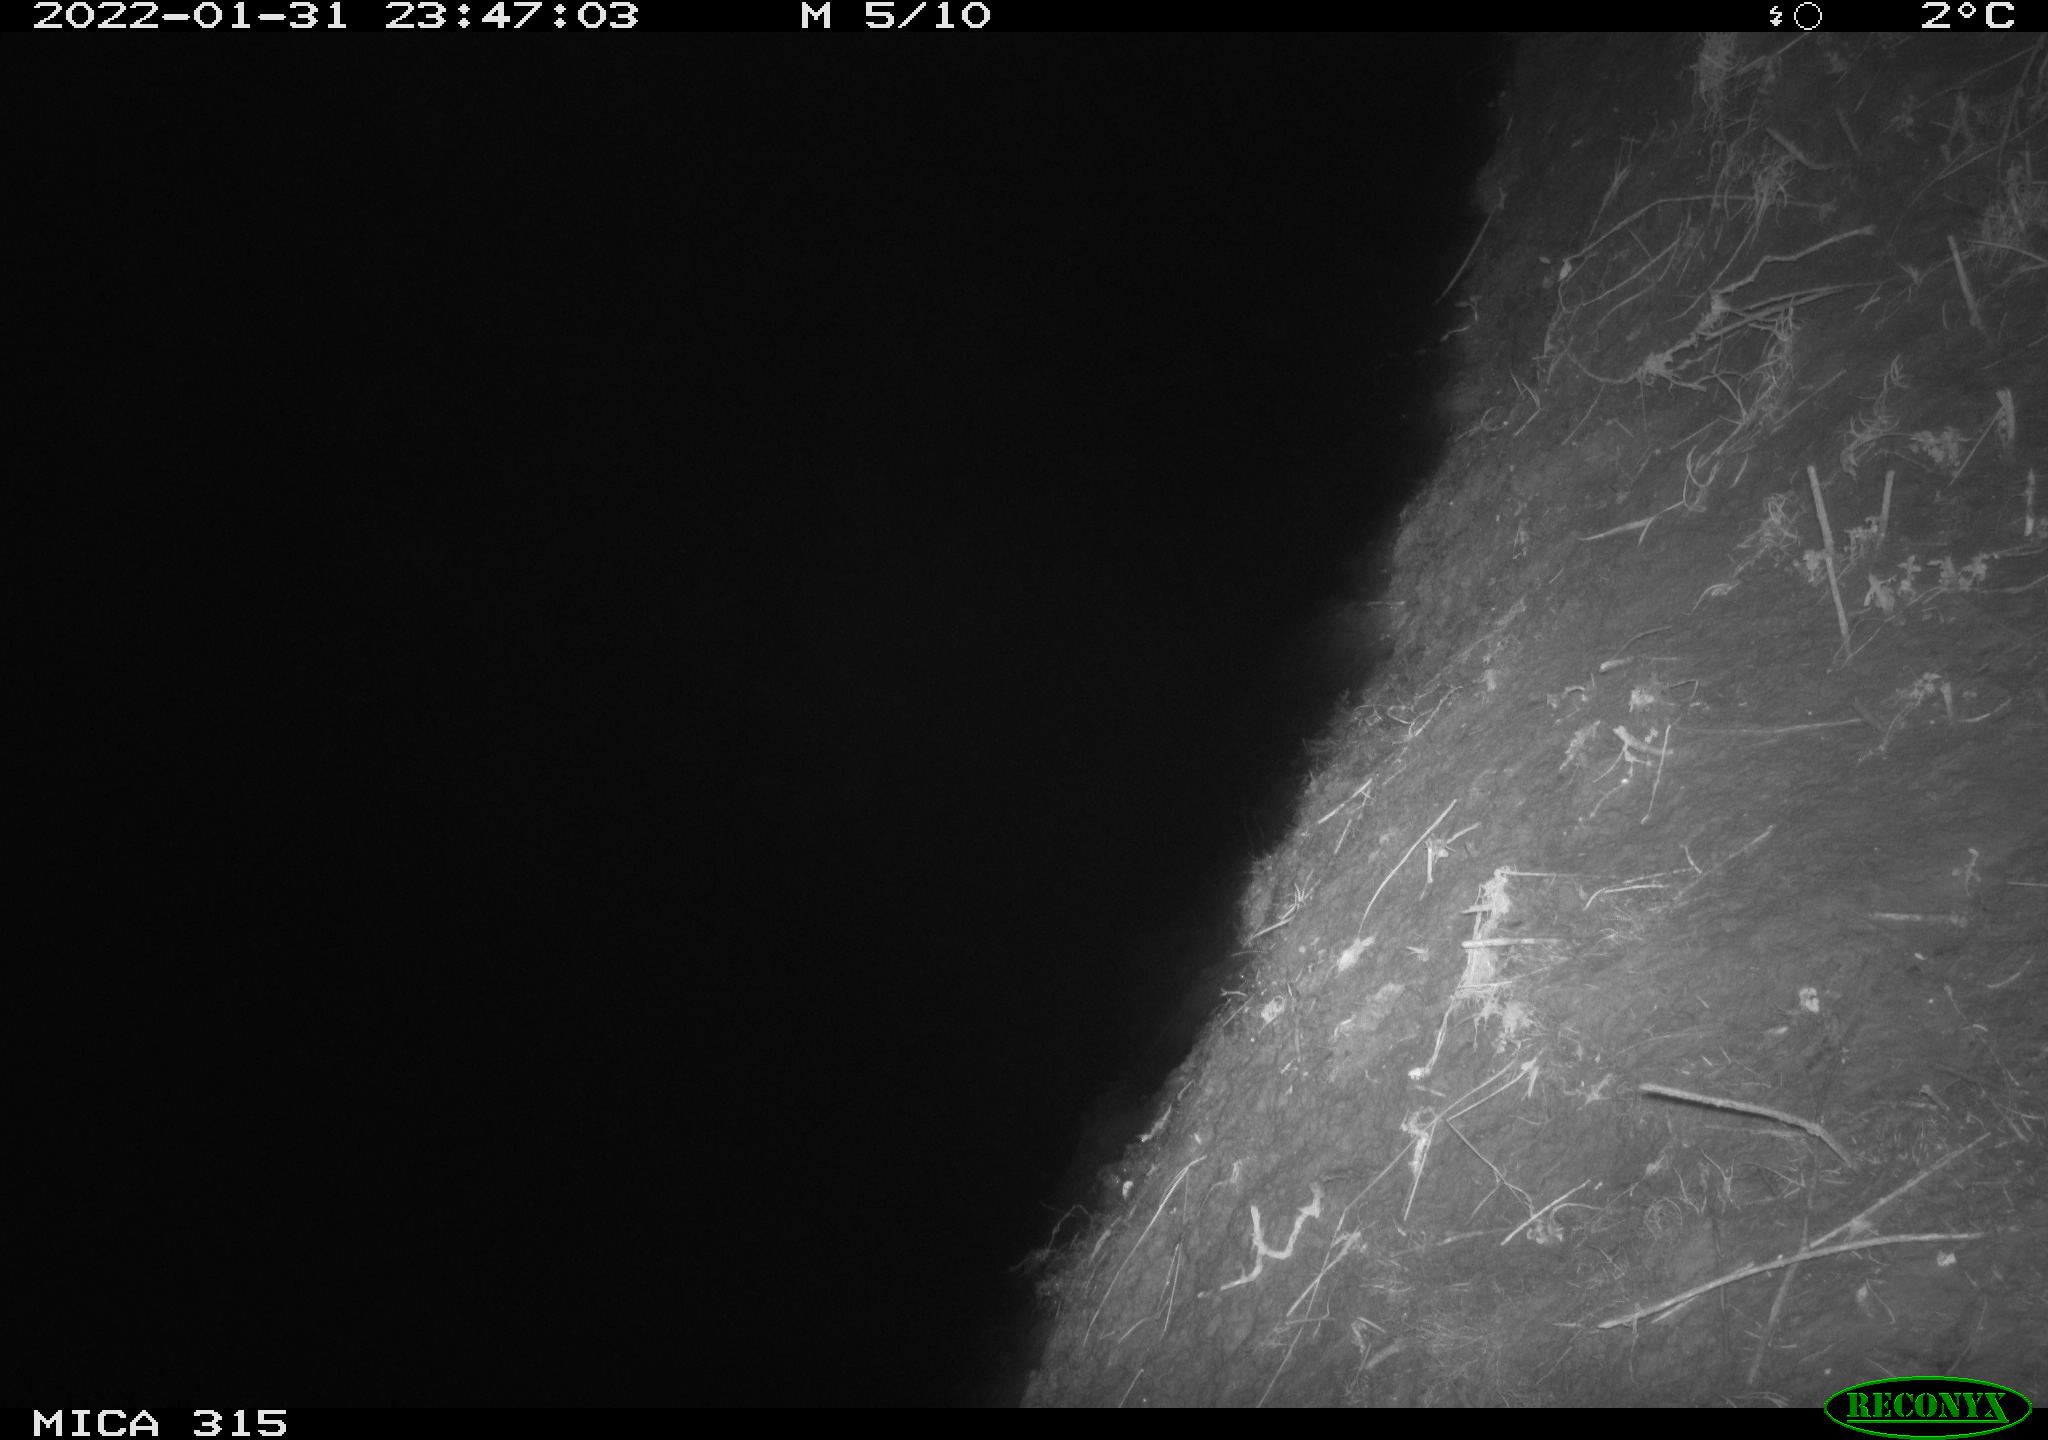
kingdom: Animalia
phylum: Chordata
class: Mammalia
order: Rodentia
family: Muridae
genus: Rattus
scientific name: Rattus norvegicus
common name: Brown rat
